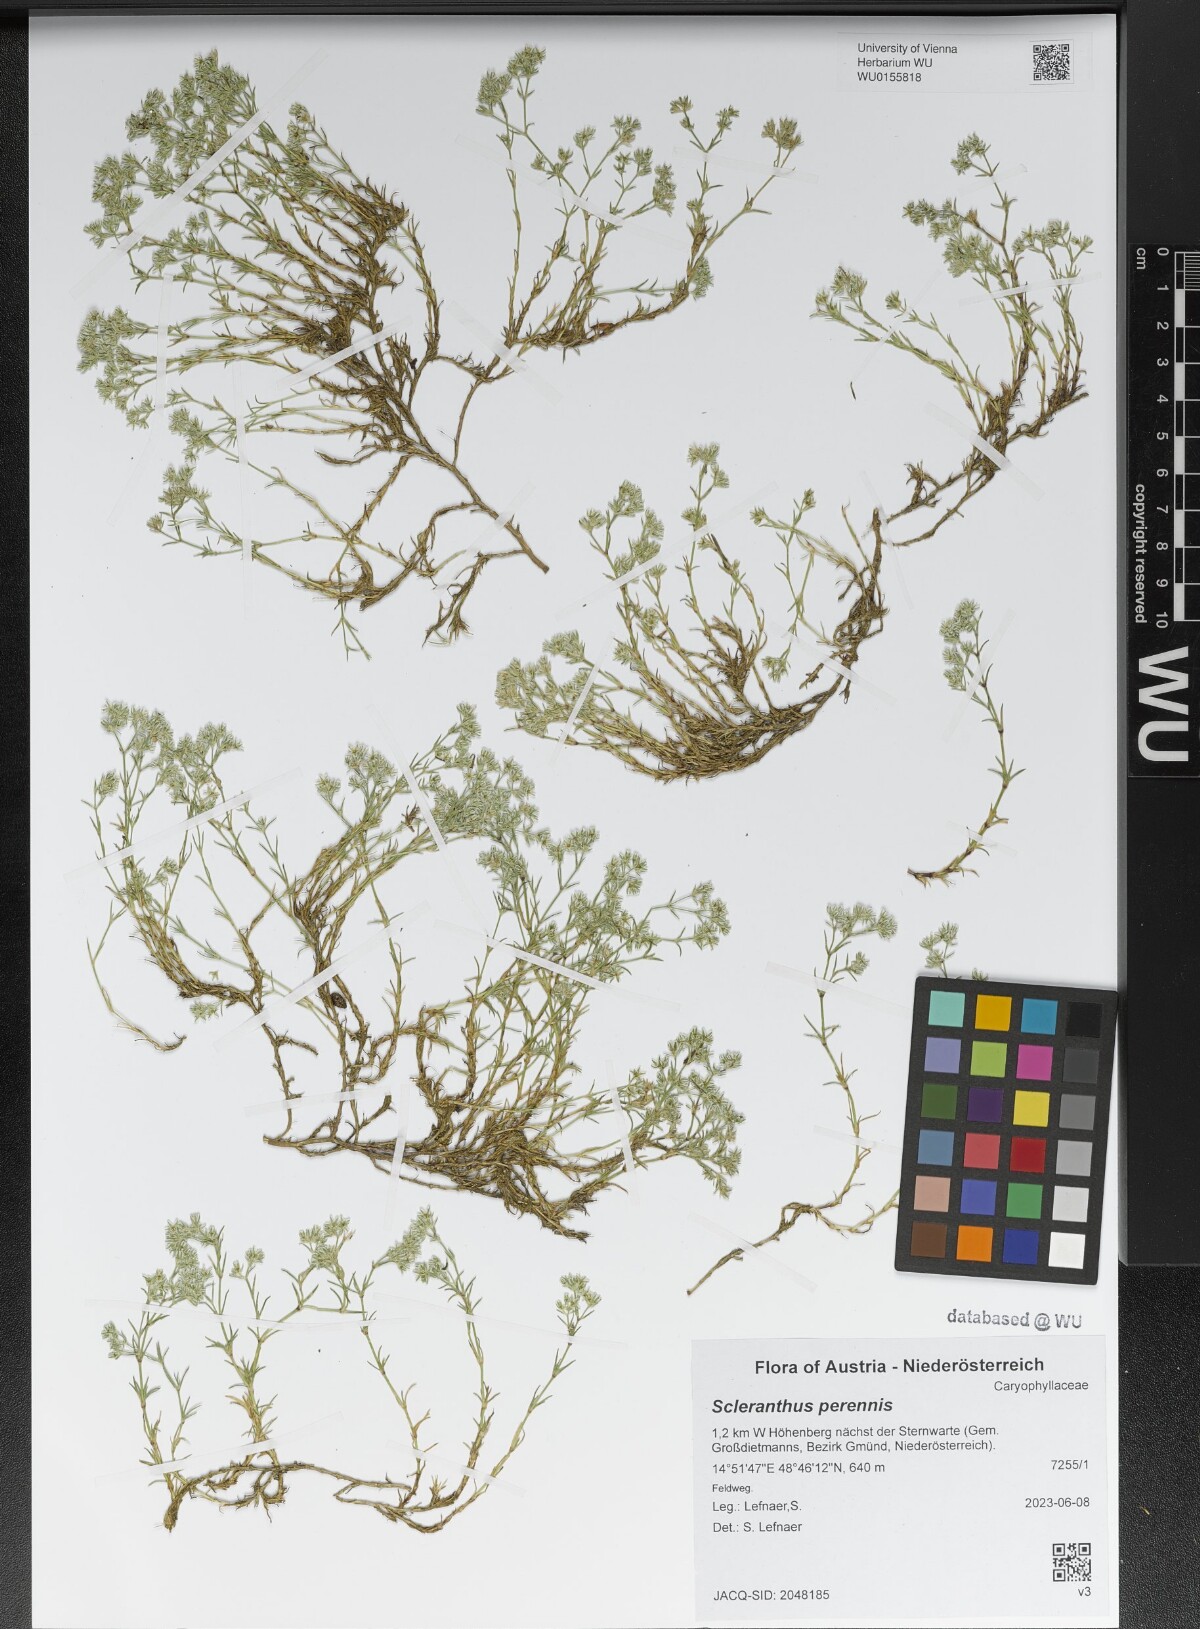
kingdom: Plantae
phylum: Tracheophyta
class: Magnoliopsida
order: Caryophyllales
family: Caryophyllaceae
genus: Scleranthus
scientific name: Scleranthus perennis
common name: Perennial knawel
